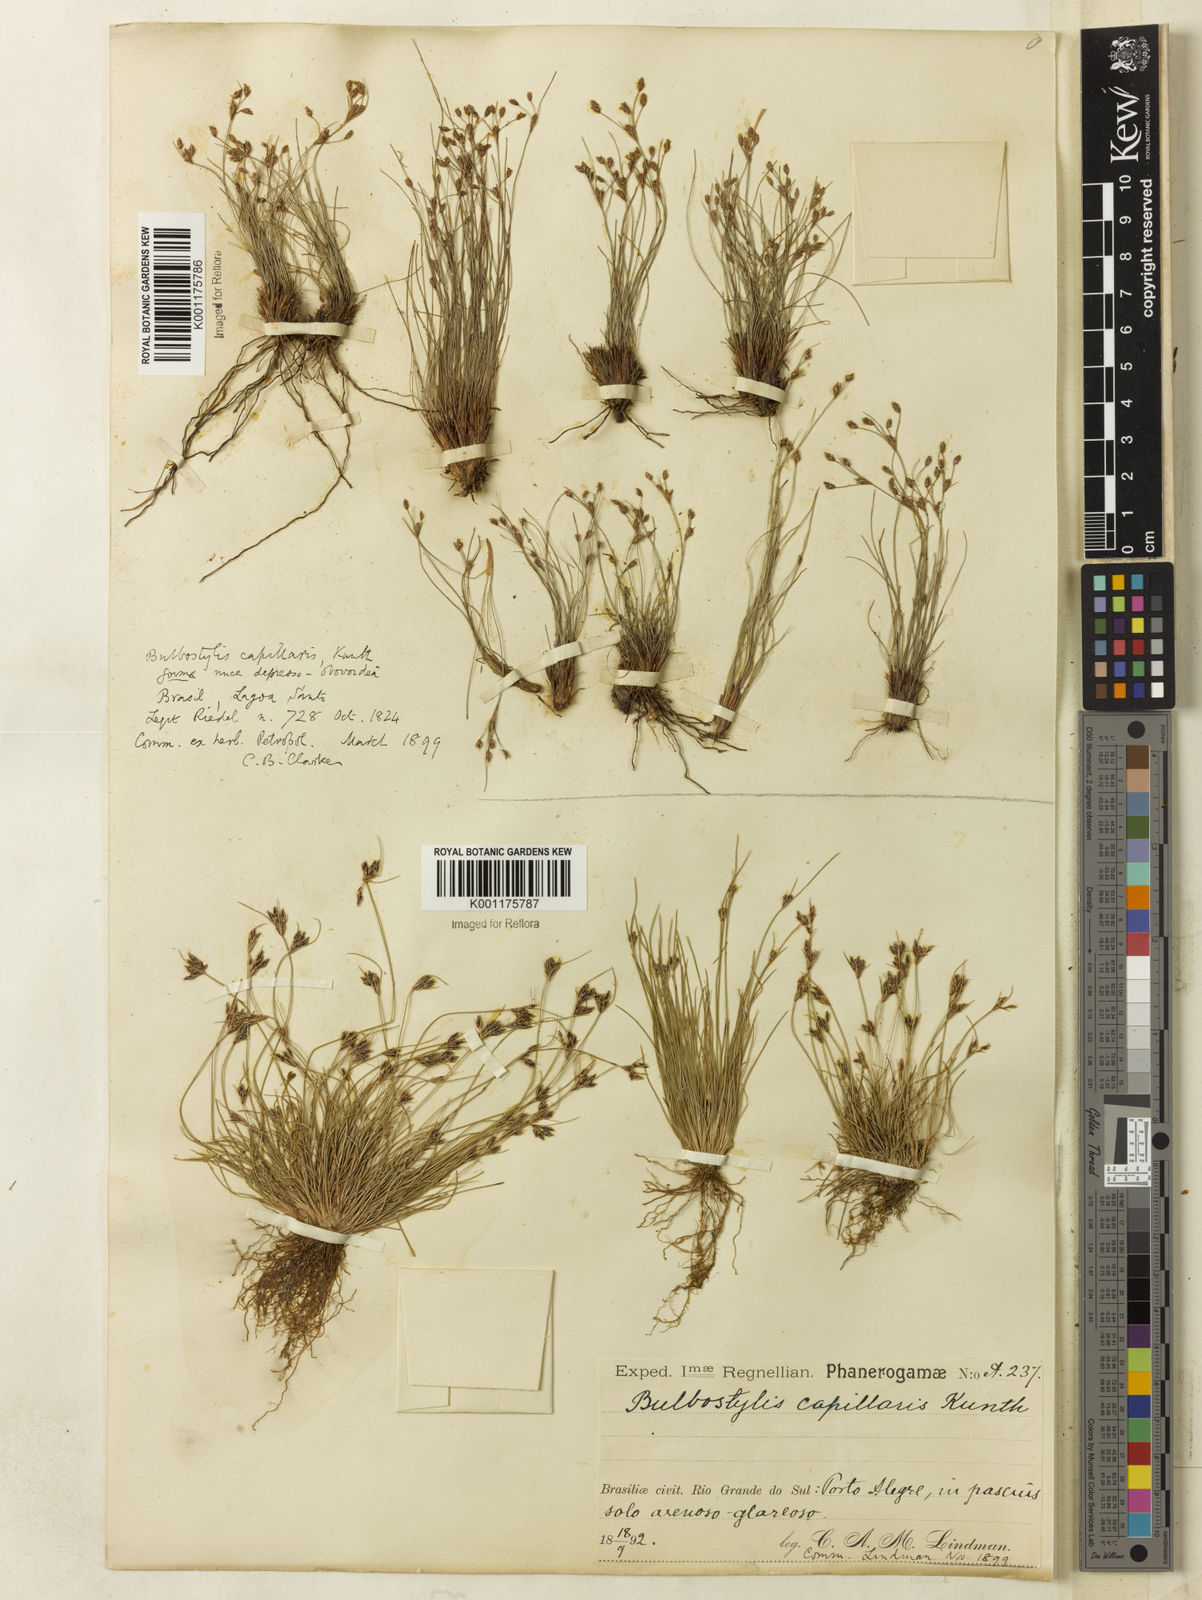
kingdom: Plantae
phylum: Tracheophyta
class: Liliopsida
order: Poales
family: Cyperaceae
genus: Bulbostylis
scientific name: Bulbostylis capillaris
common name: Densetuft hairsedge
